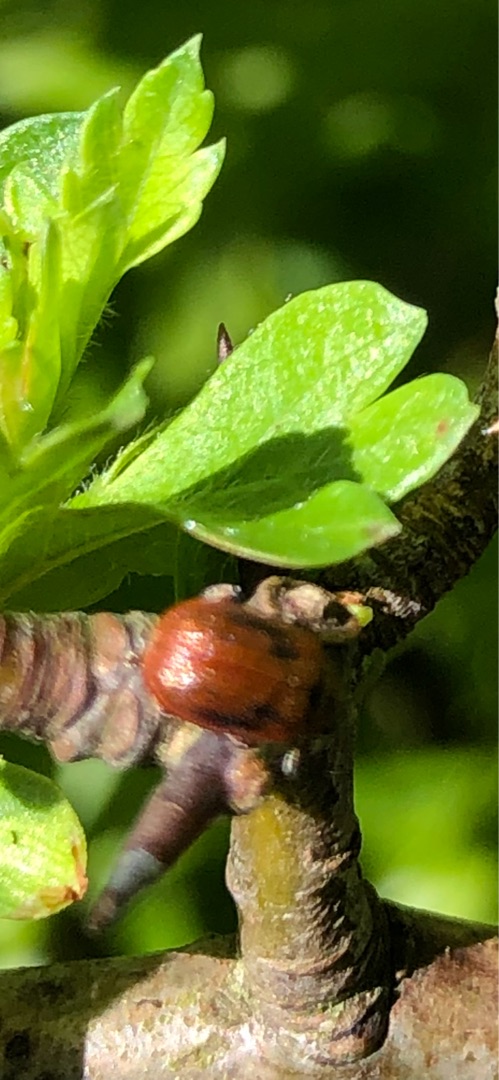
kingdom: Animalia
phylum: Arthropoda
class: Insecta
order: Coleoptera
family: Chrysomelidae
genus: Lochmaea
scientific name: Lochmaea crataegi
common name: Tjørnebladbille
